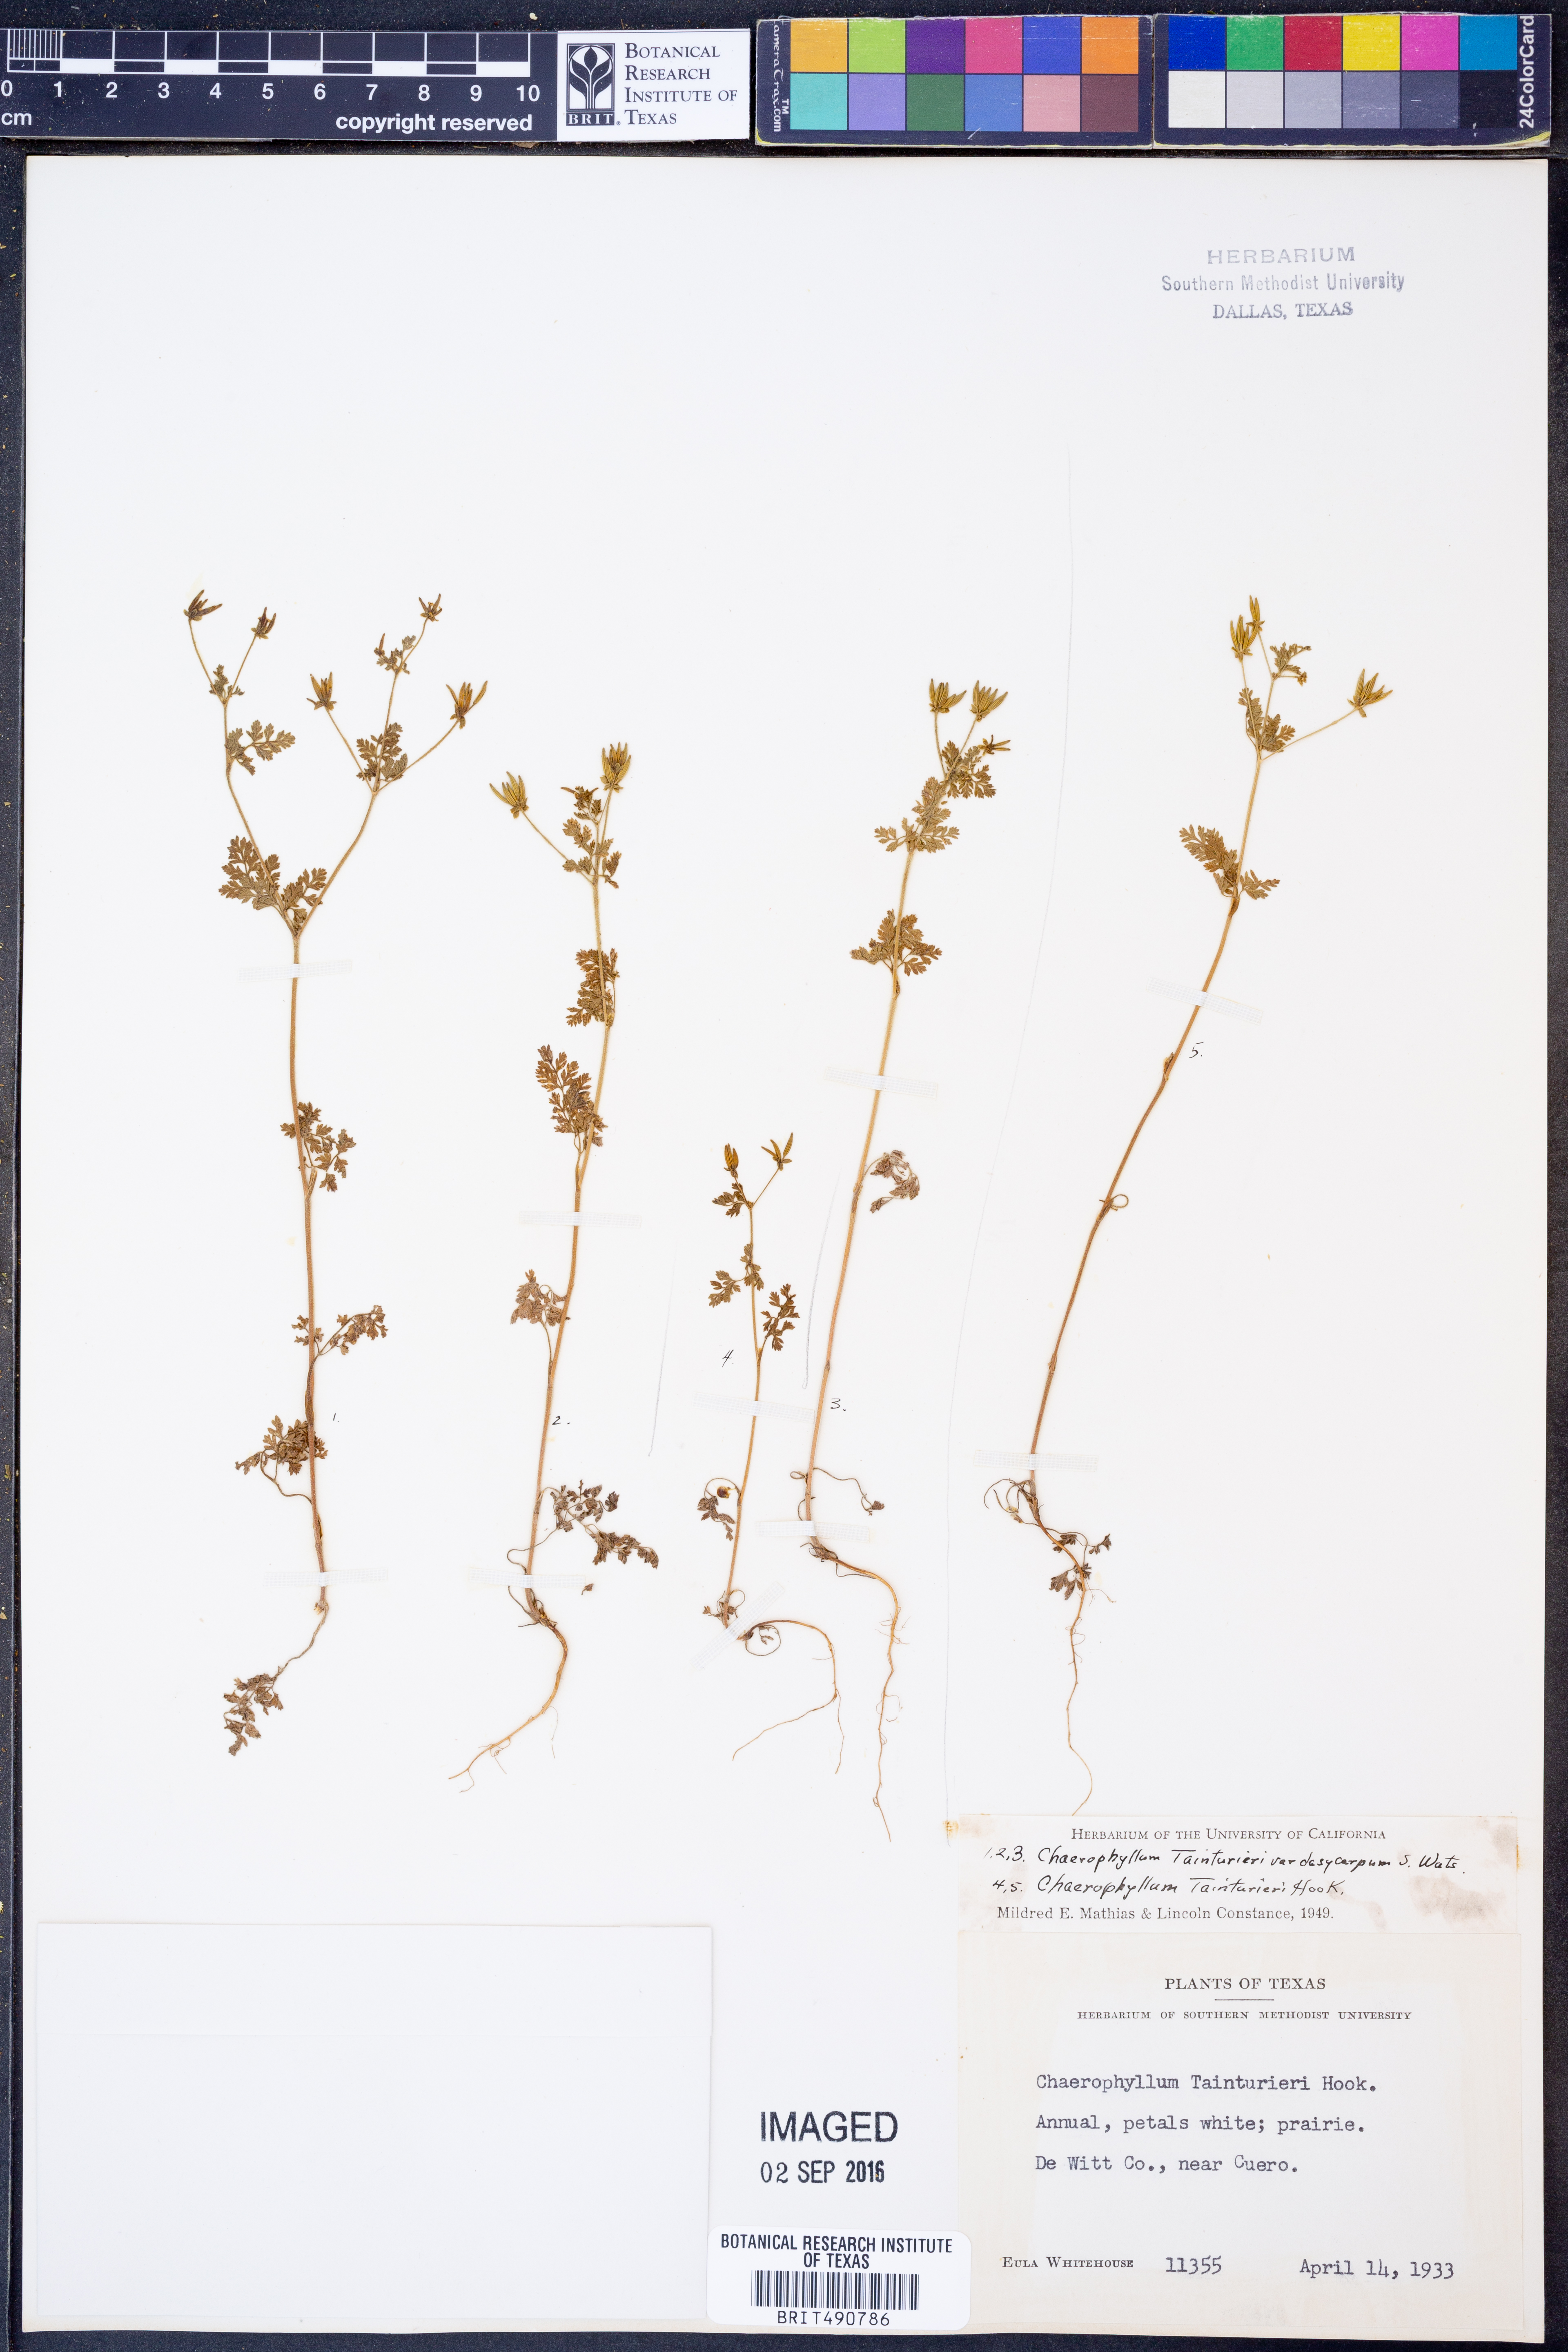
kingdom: Plantae
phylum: Tracheophyta
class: Magnoliopsida
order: Apiales
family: Apiaceae
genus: Chaerophyllum
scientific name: Chaerophyllum dasycarpum
